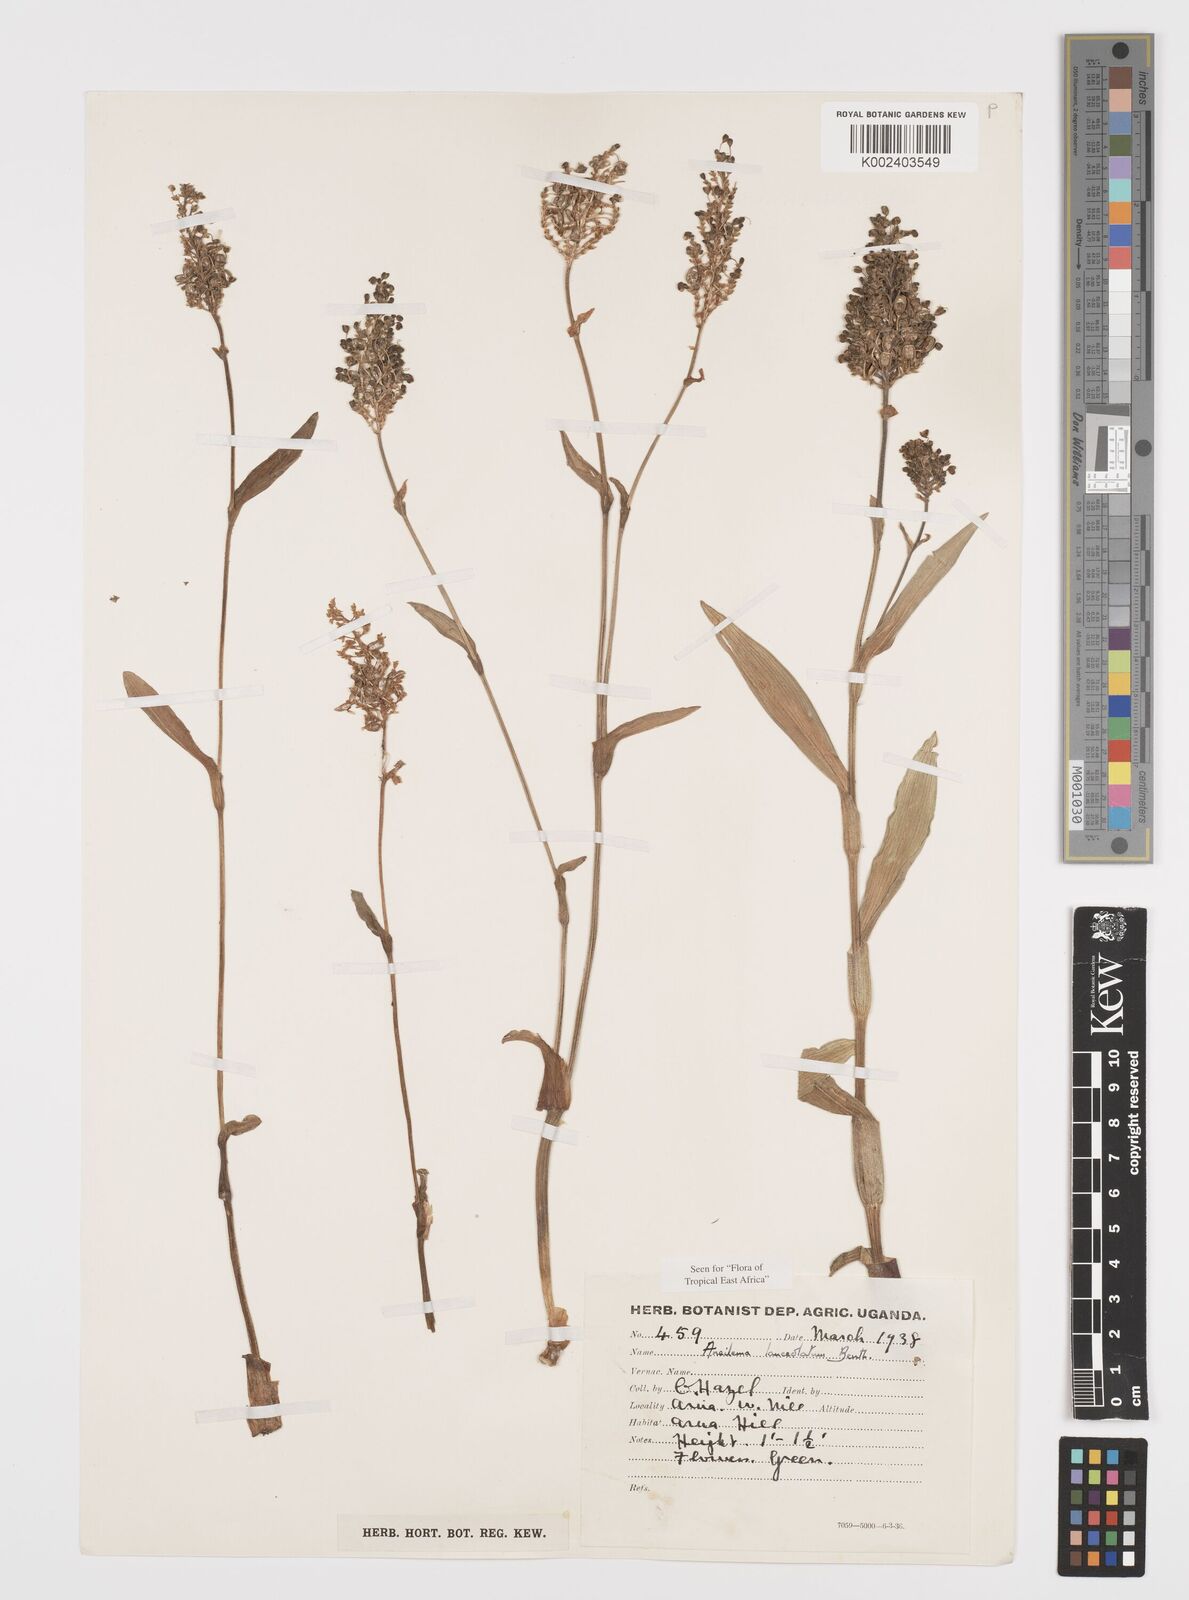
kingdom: Plantae
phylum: Tracheophyta
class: Liliopsida
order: Commelinales
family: Commelinaceae
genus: Aneilema
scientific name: Aneilema lanceolatum
